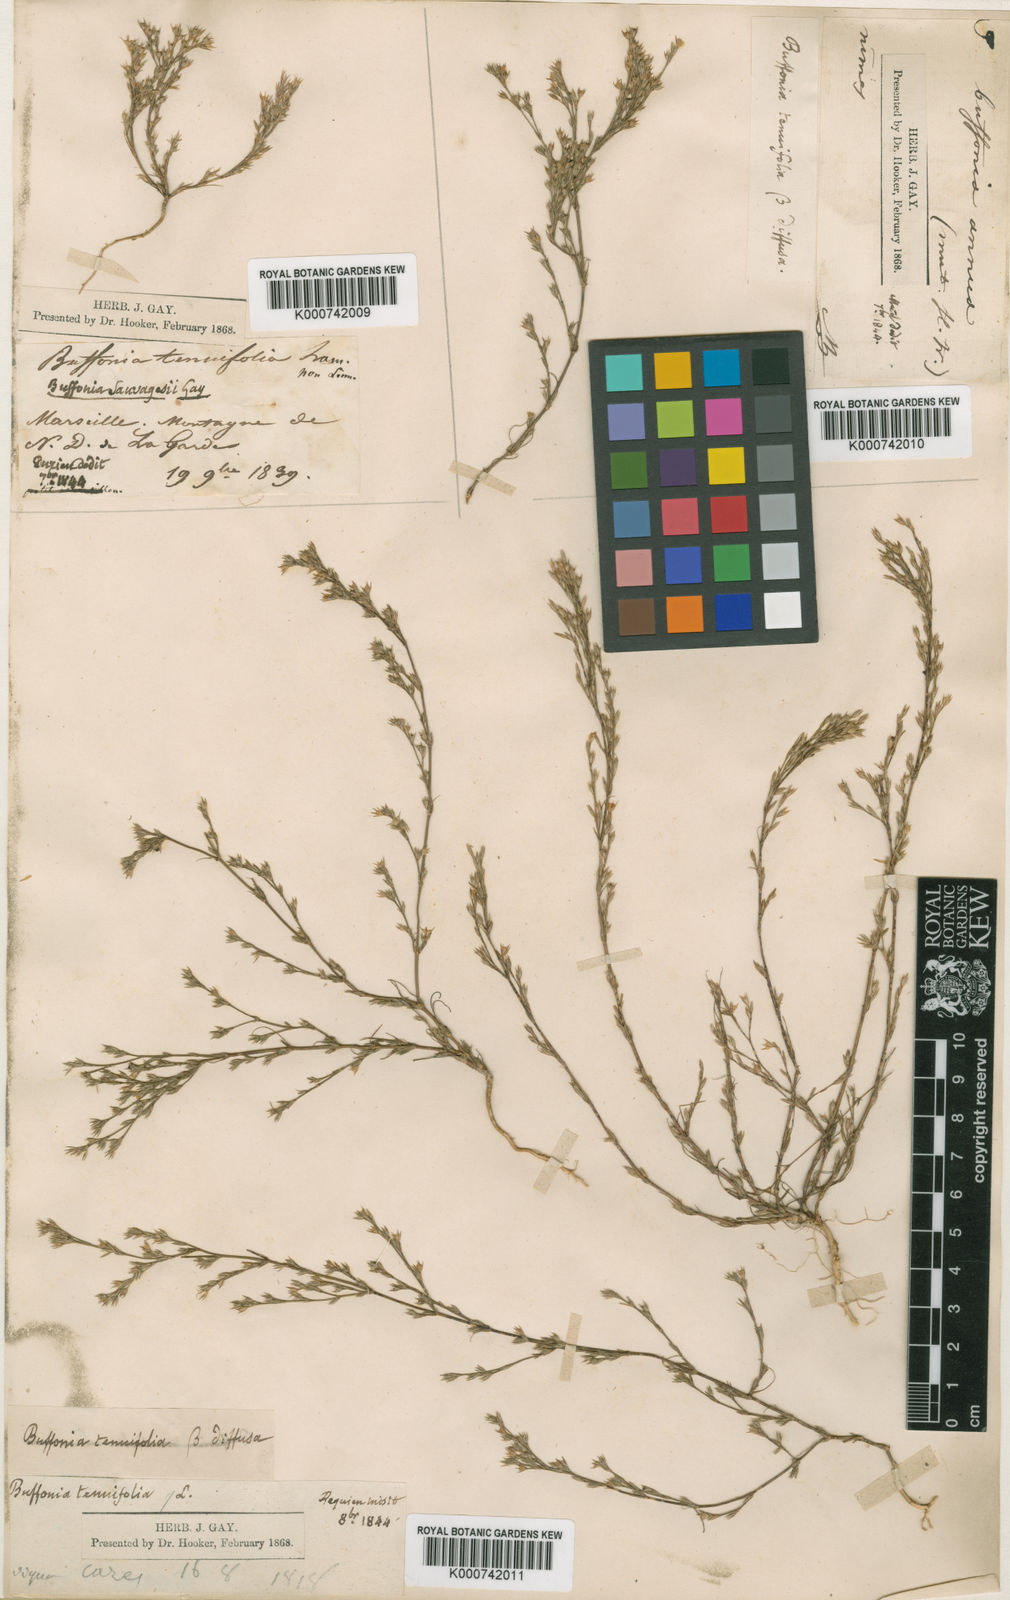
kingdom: Plantae
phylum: Tracheophyta
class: Magnoliopsida
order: Caryophyllales
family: Caryophyllaceae
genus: Bufonia
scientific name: Bufonia tenuifolia
